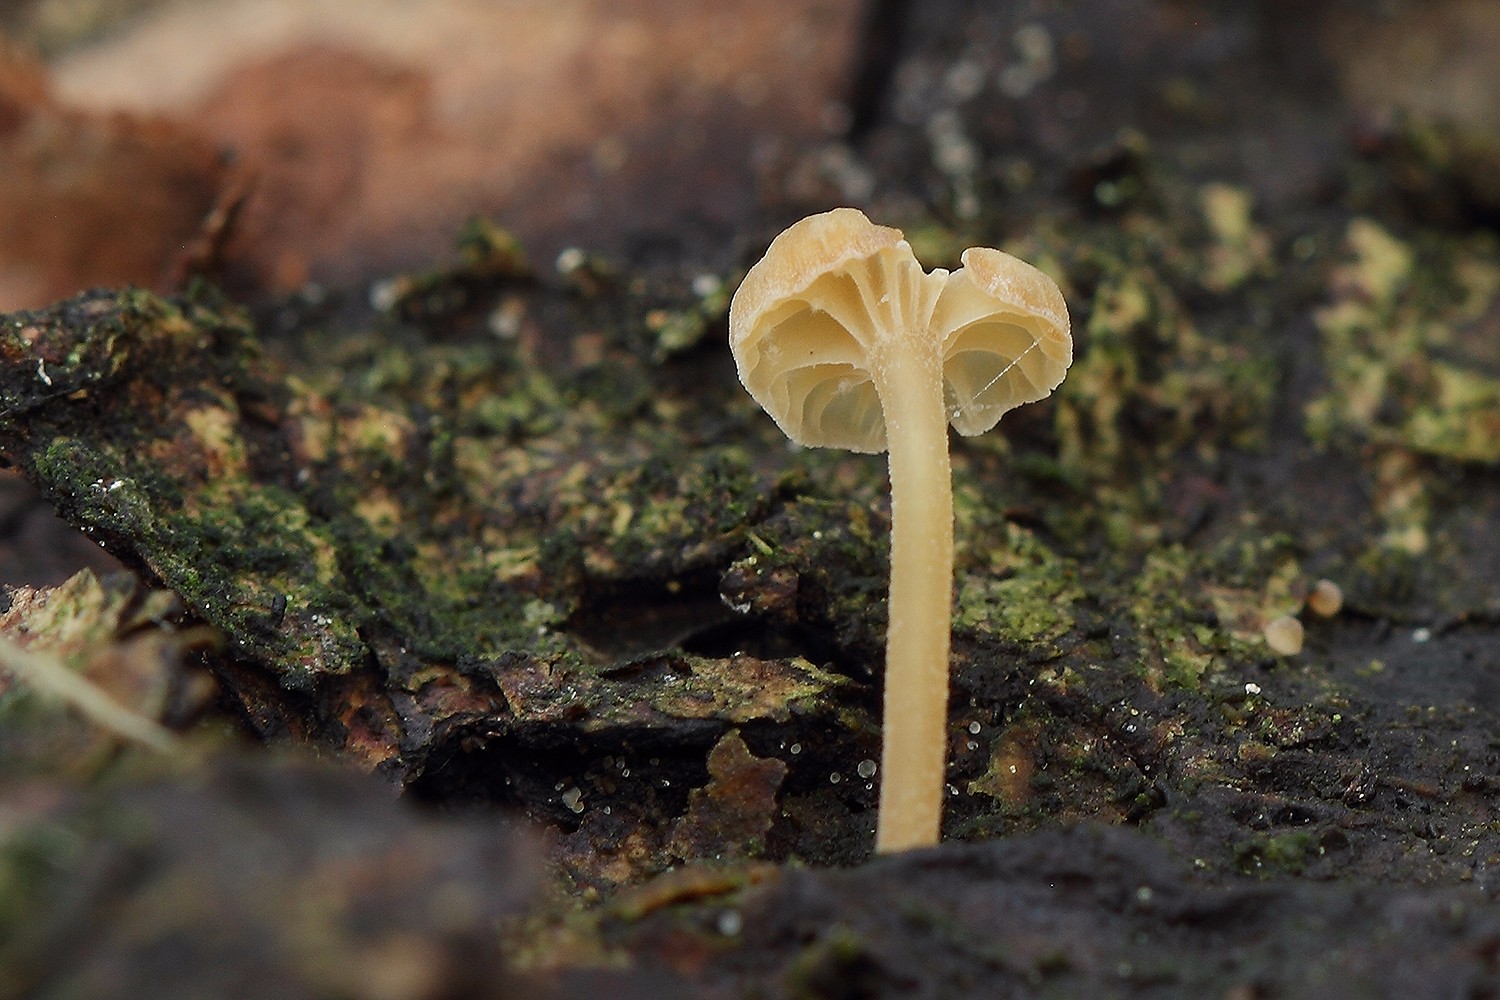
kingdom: Fungi
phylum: Basidiomycota
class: Agaricomycetes
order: Agaricales
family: Porotheleaceae
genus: Phloeomana
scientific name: Phloeomana clavata
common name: brunbladet huesvamp
